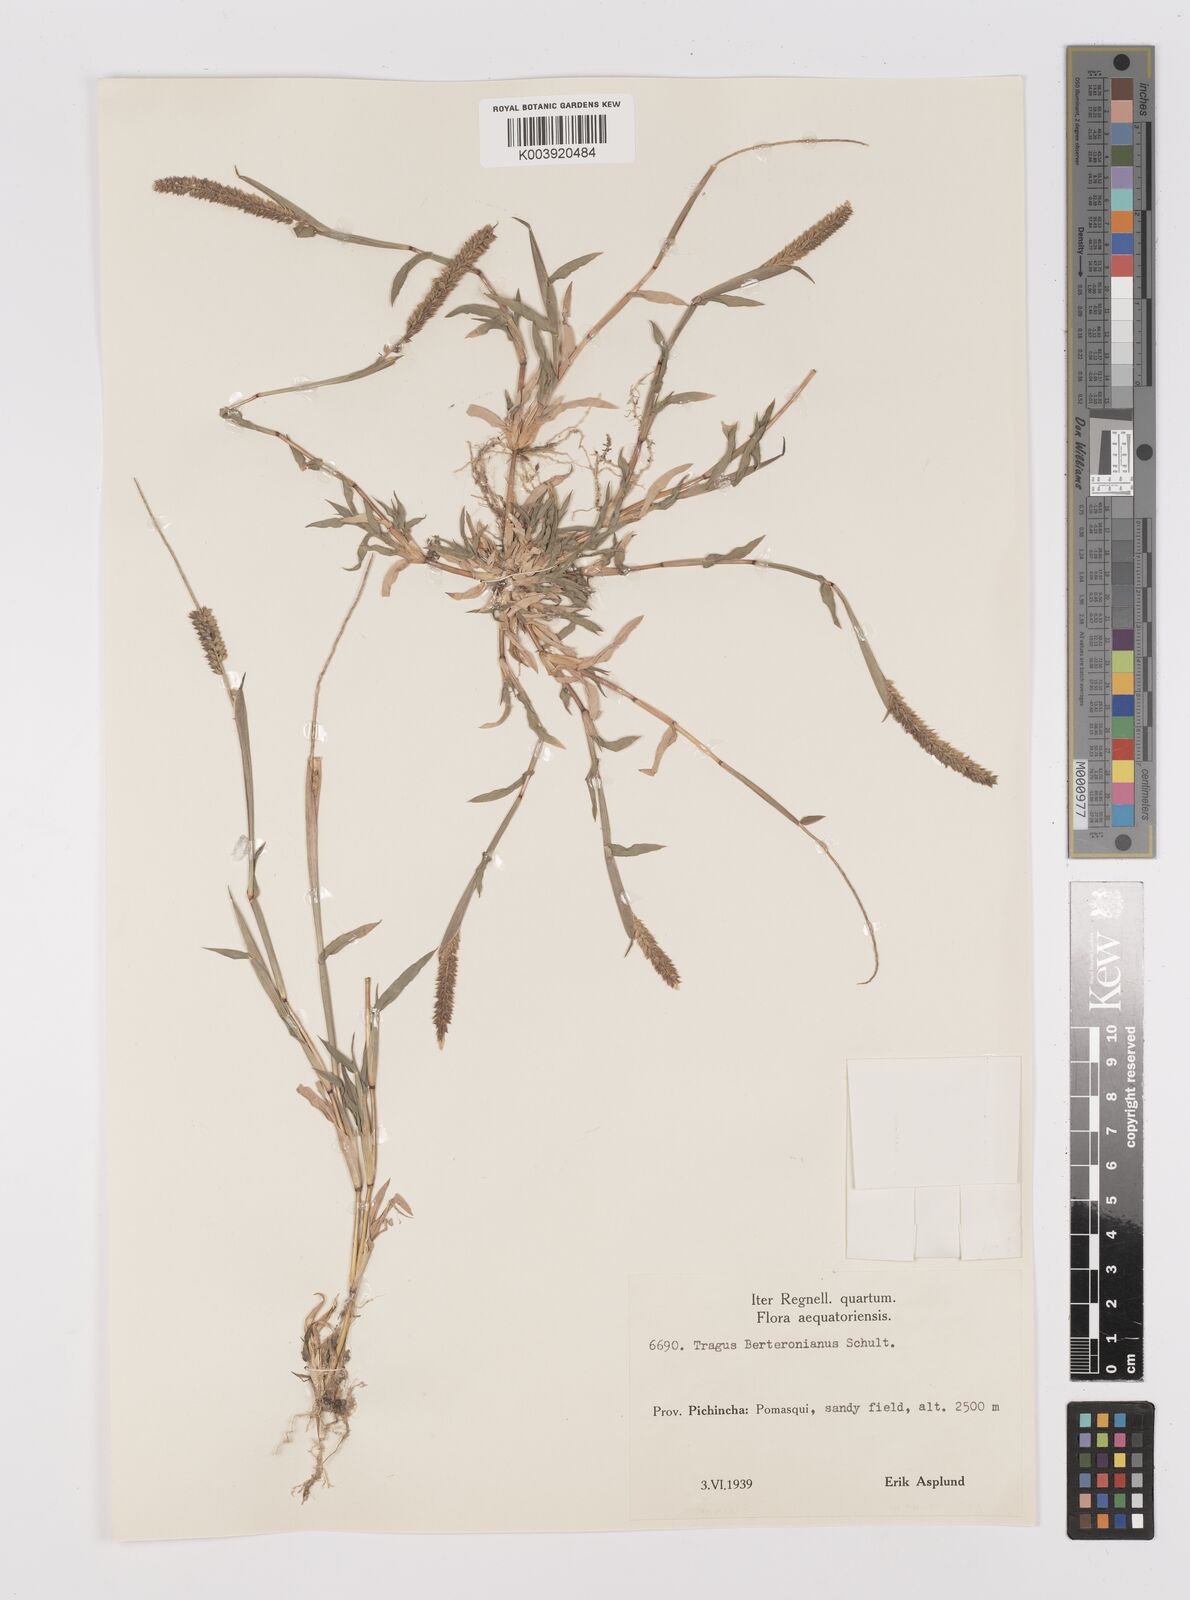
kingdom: Plantae
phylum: Tracheophyta
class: Liliopsida
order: Poales
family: Poaceae
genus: Tragus
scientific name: Tragus berteronianus
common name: African bur-grass
